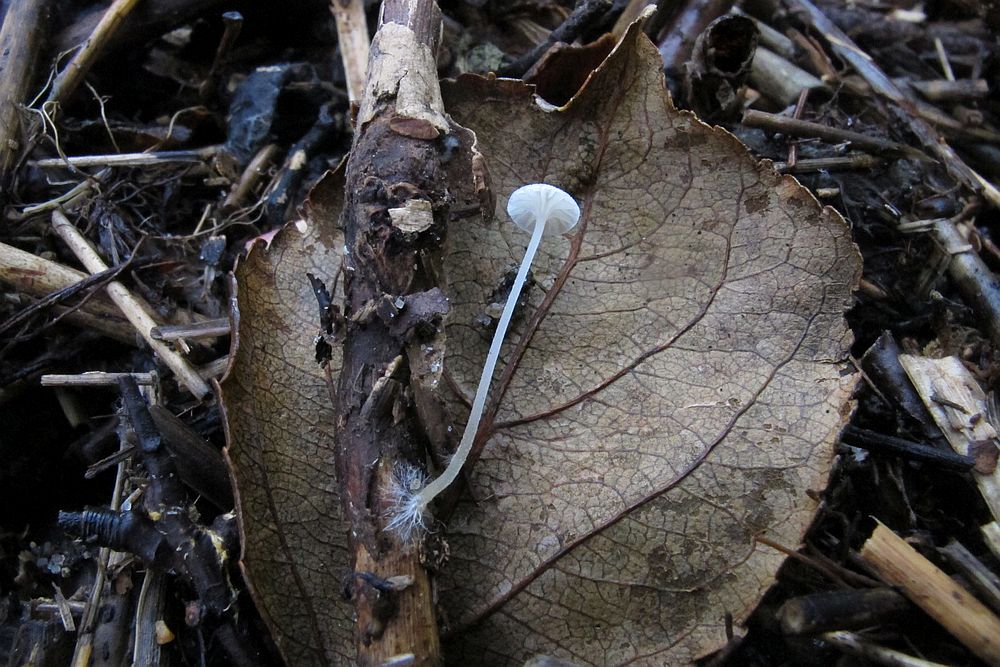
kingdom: Fungi
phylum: Basidiomycota
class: Agaricomycetes
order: Agaricales
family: Porotheleaceae
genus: Phloeomana
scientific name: Phloeomana speirea
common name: kvist-huesvamp
